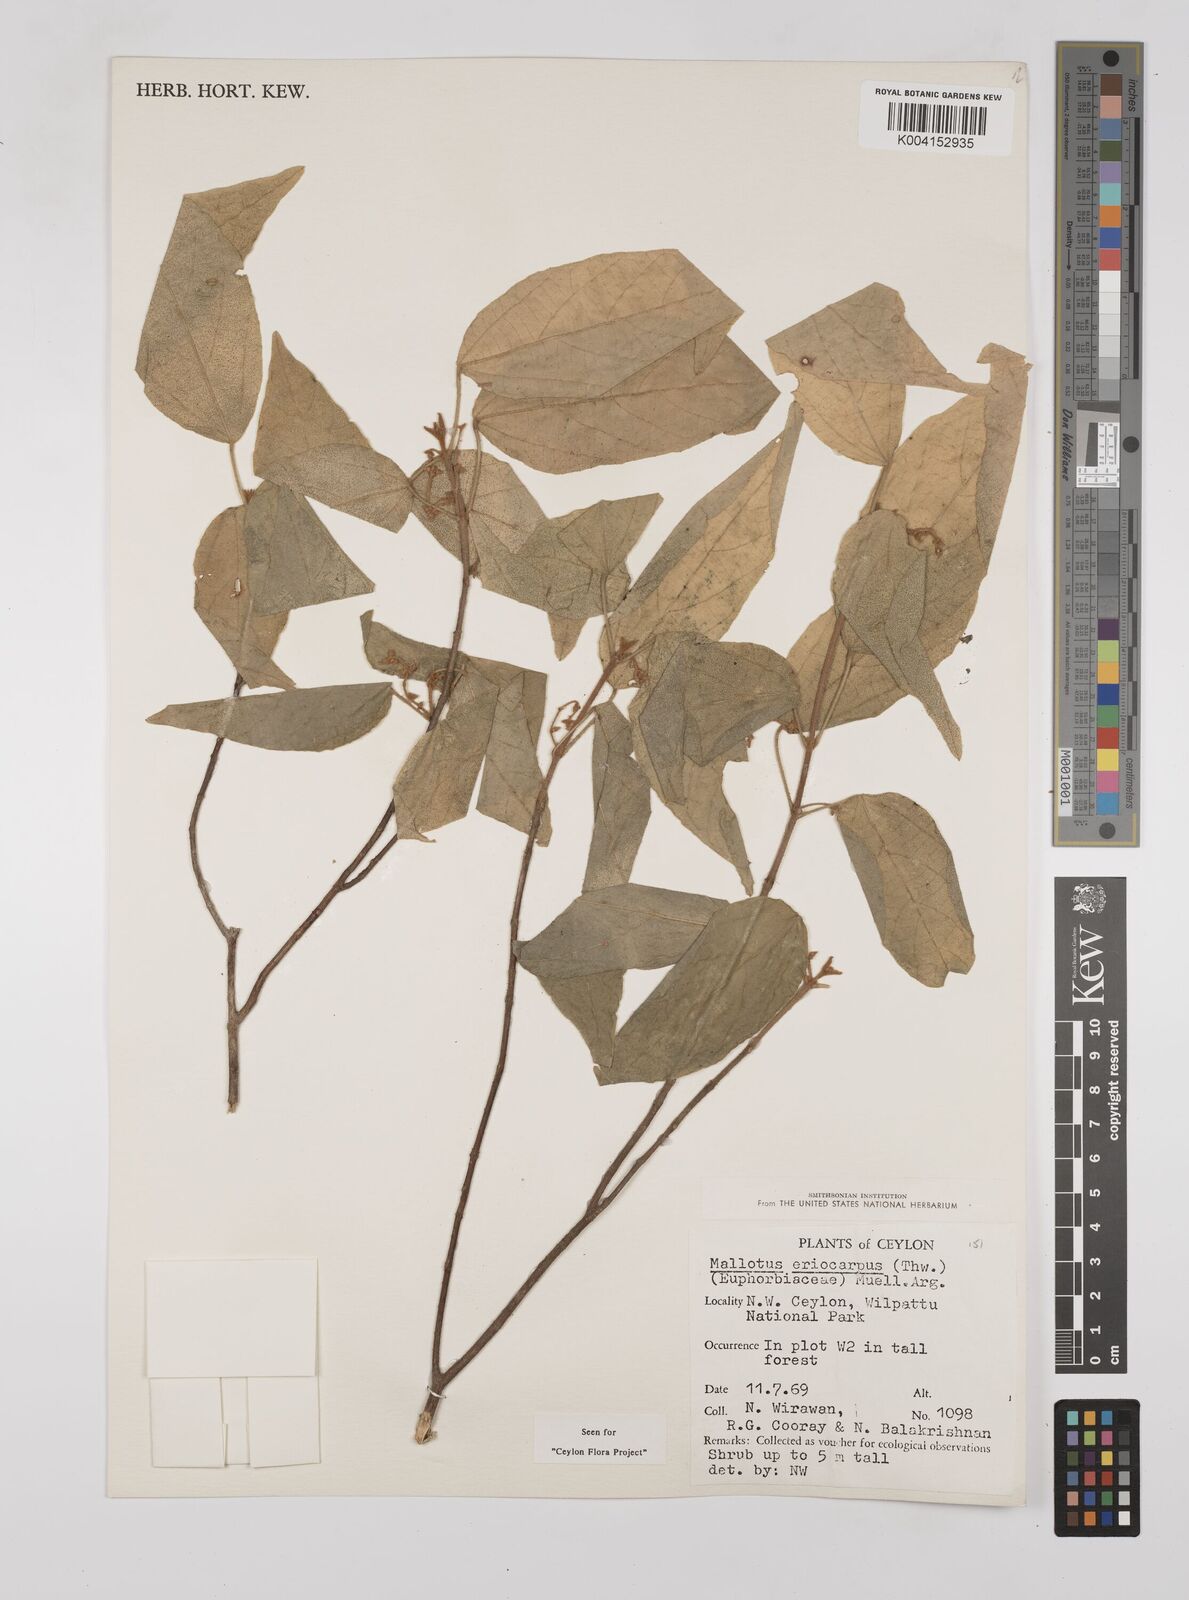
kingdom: Plantae
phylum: Tracheophyta
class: Magnoliopsida
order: Malpighiales
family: Euphorbiaceae
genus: Mallotus
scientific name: Mallotus eriocarpus
